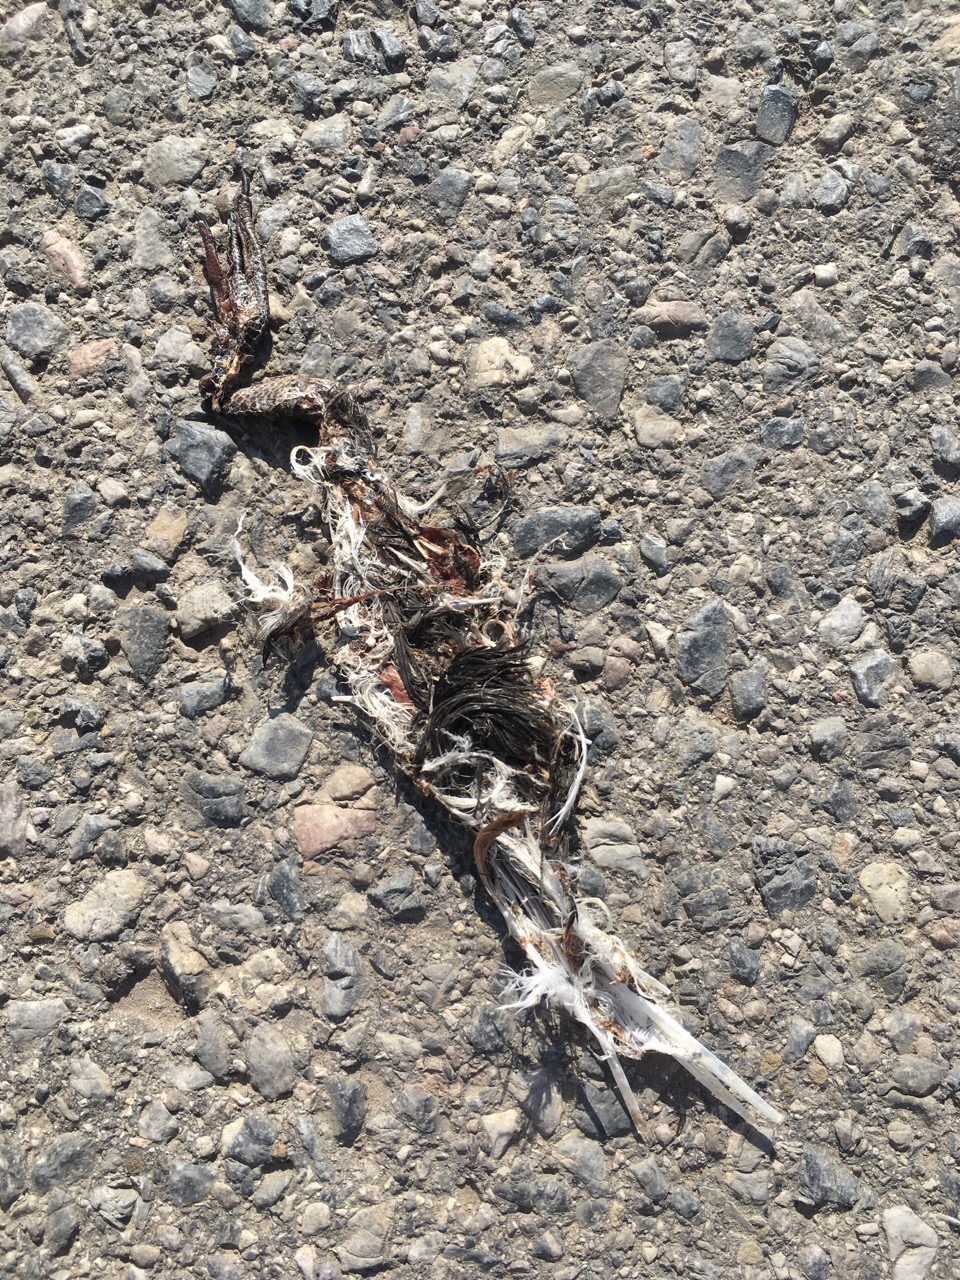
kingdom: Animalia
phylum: Chordata
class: Aves
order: Charadriiformes
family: Charadriidae
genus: Vanellus
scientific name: Vanellus vanellus
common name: Northern lapwing
